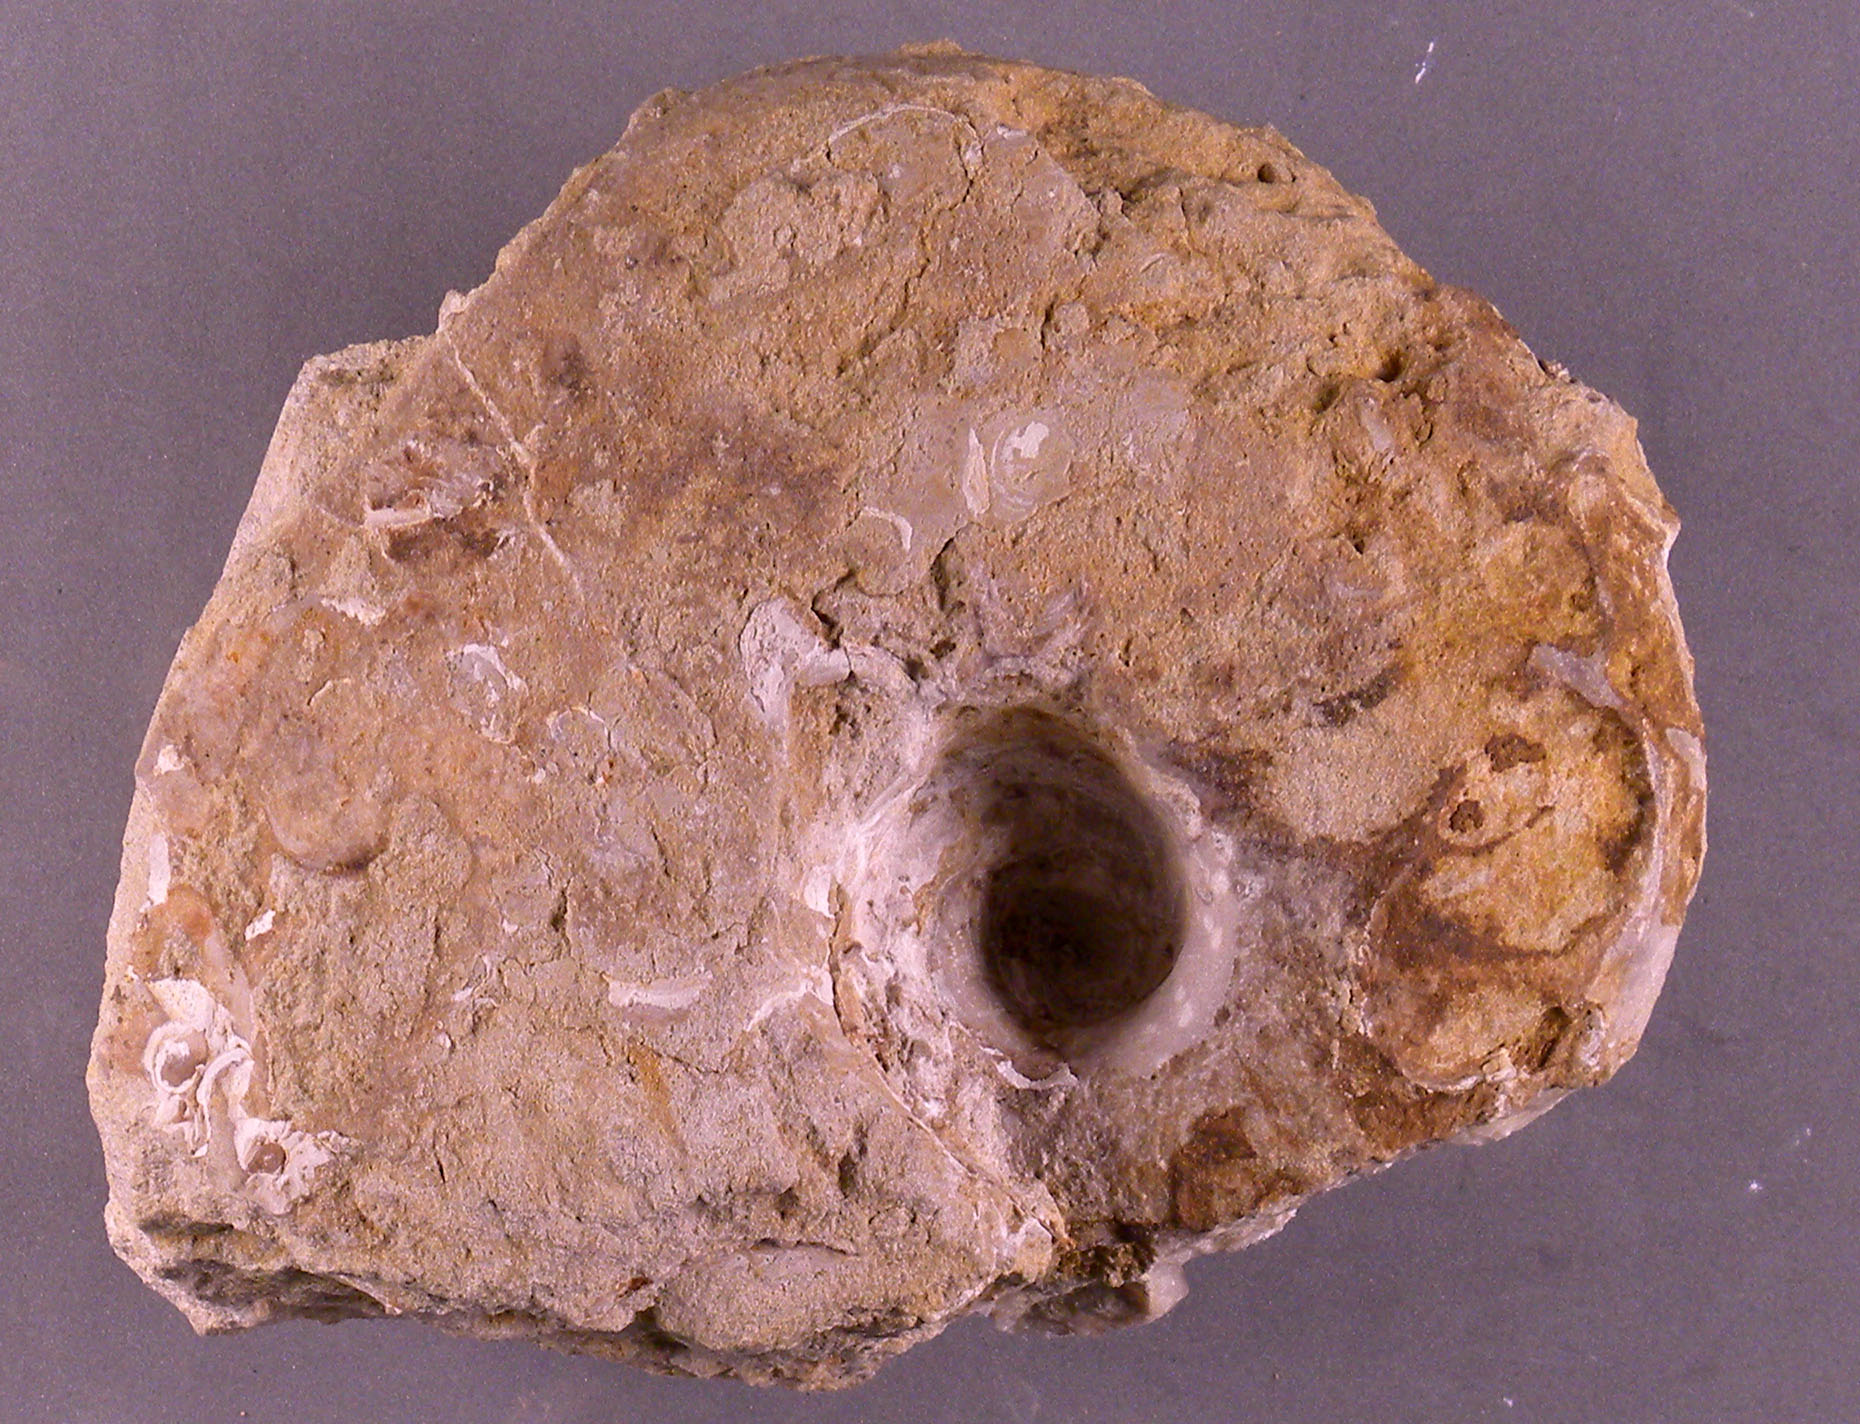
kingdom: Animalia
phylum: Mollusca
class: Cephalopoda
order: Nautilida
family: Nautilidae
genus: Cenoceras
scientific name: Cenoceras
